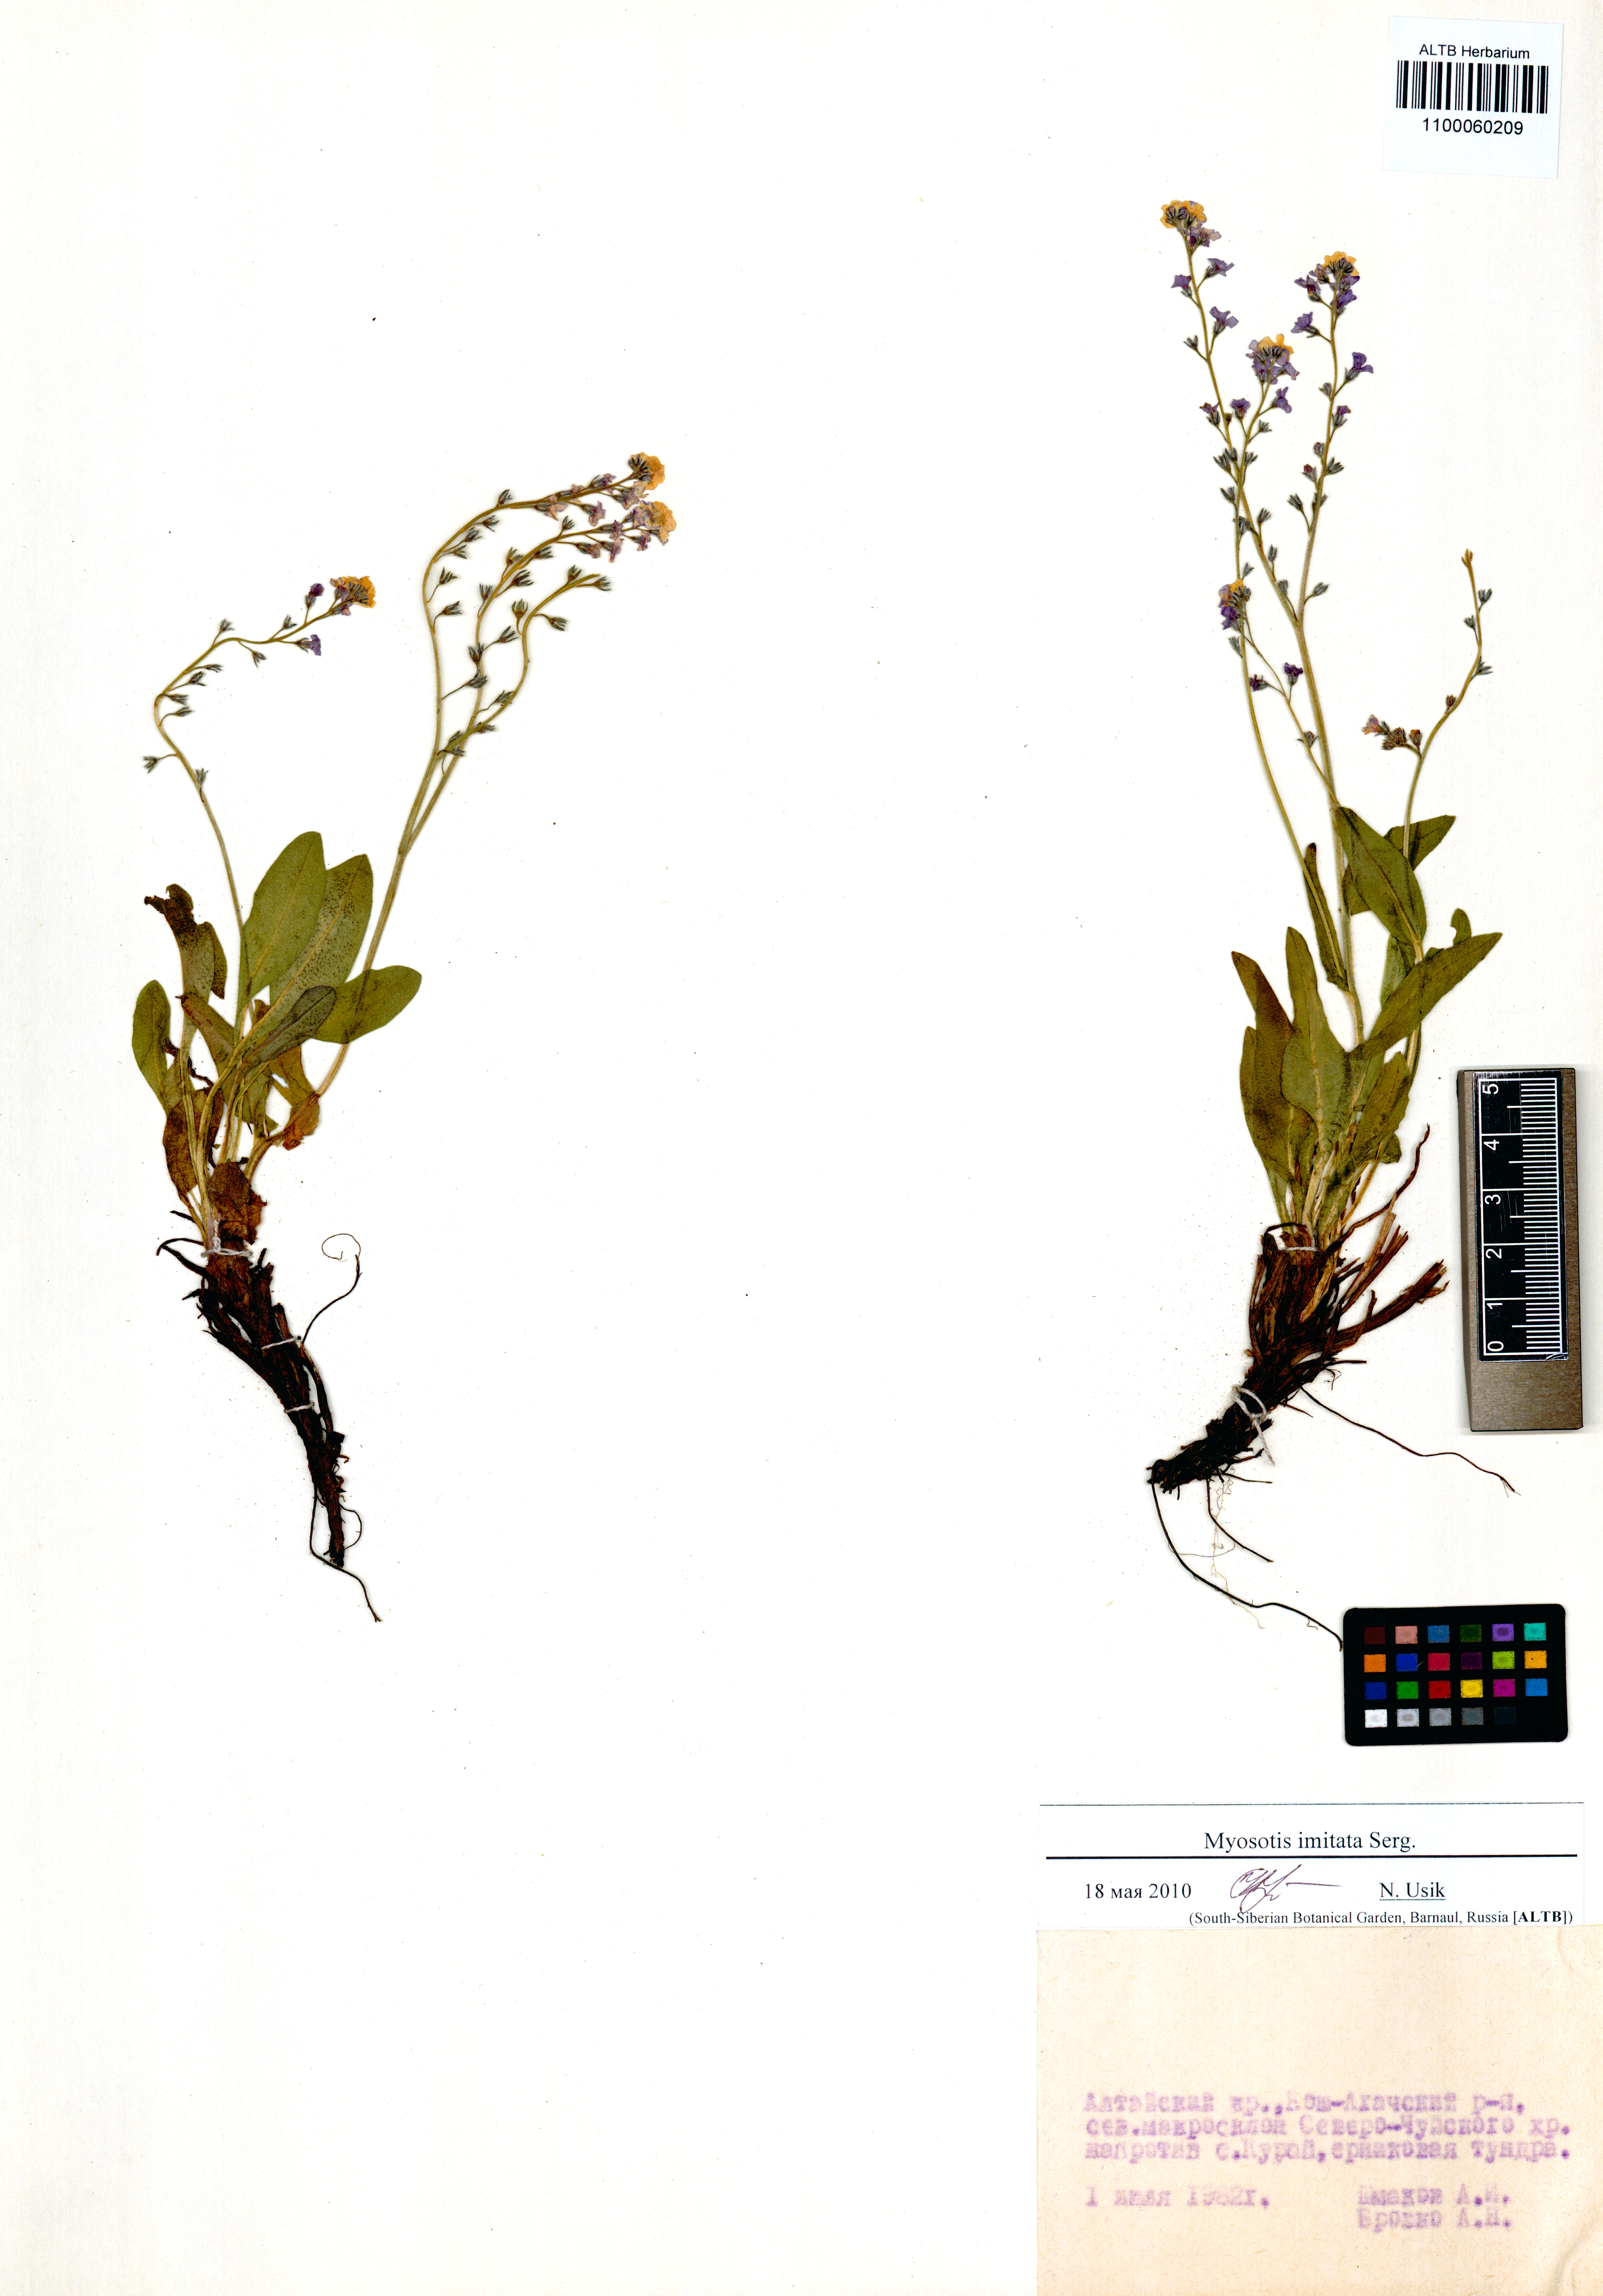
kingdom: Plantae
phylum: Tracheophyta
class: Magnoliopsida
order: Boraginales
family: Boraginaceae
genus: Myosotis
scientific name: Myosotis imitata
